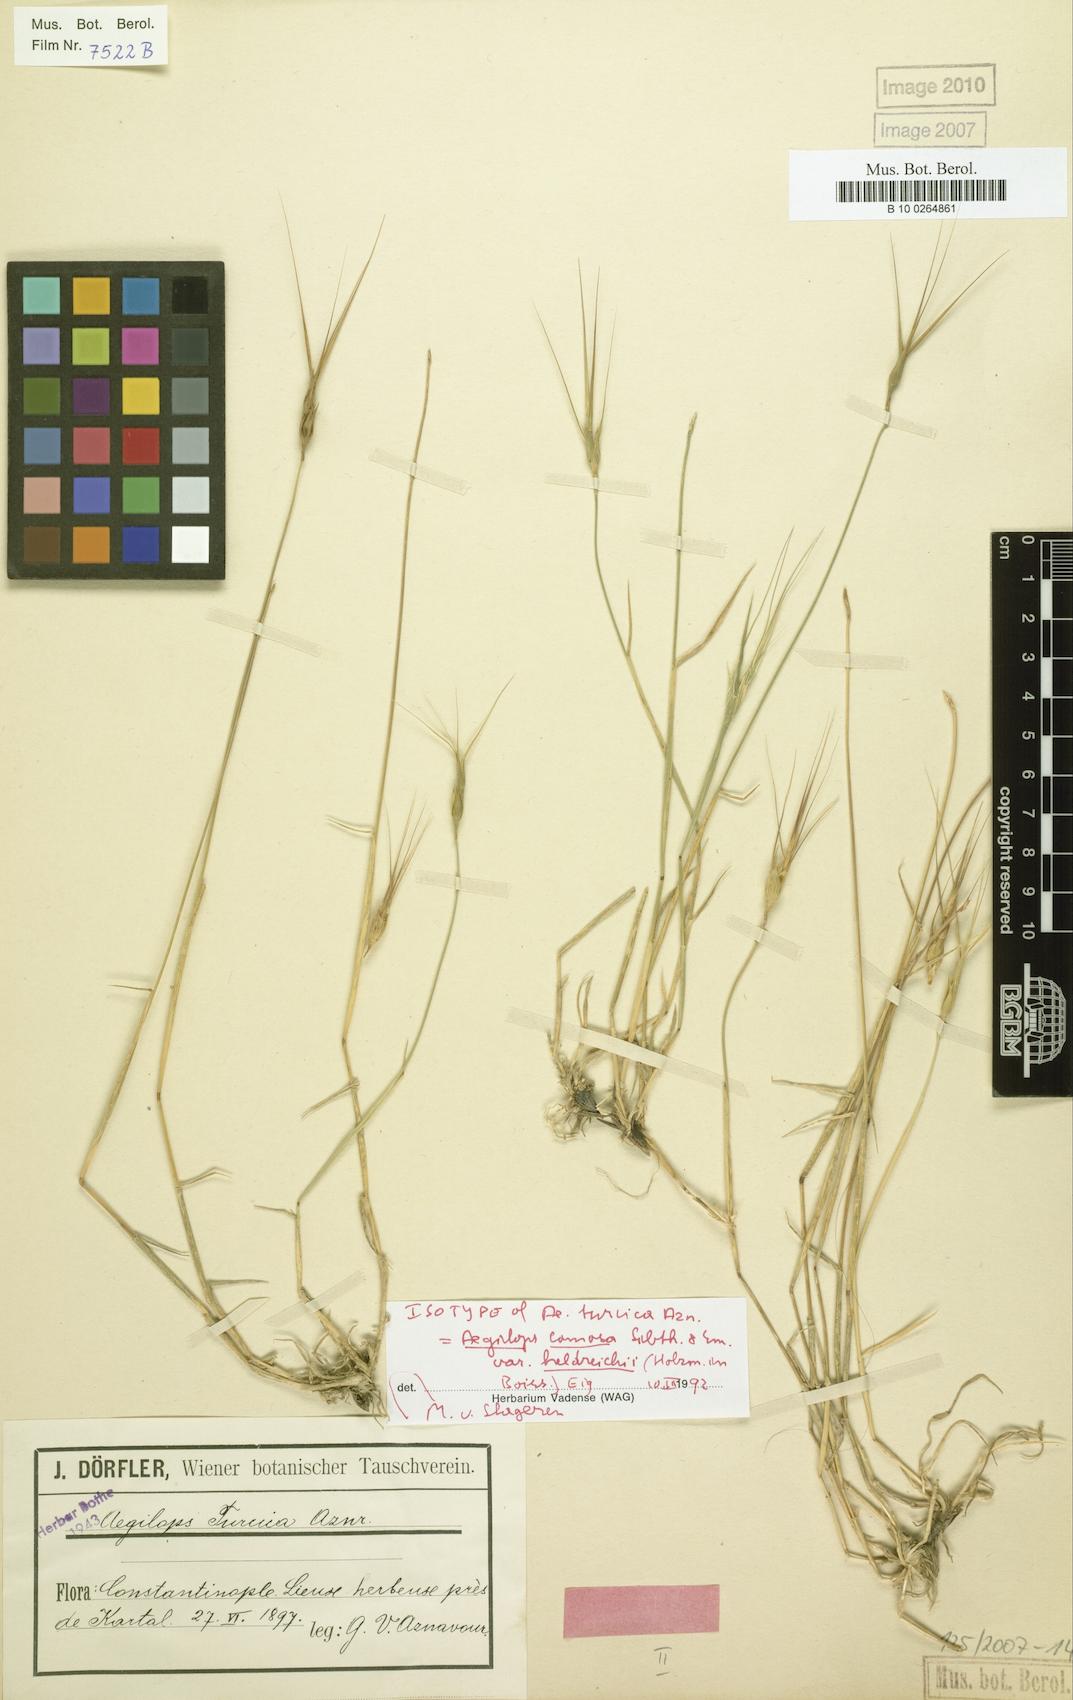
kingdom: Plantae
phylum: Tracheophyta
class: Liliopsida
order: Poales
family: Poaceae
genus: Aegilops
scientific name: Aegilops comosa
